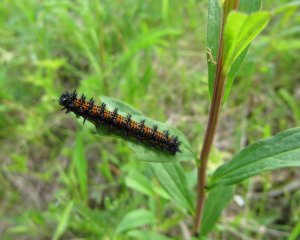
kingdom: Animalia
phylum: Arthropoda
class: Insecta
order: Lepidoptera
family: Nymphalidae
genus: Chlosyne
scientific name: Chlosyne harrisii
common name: Harris's Checkerspot
